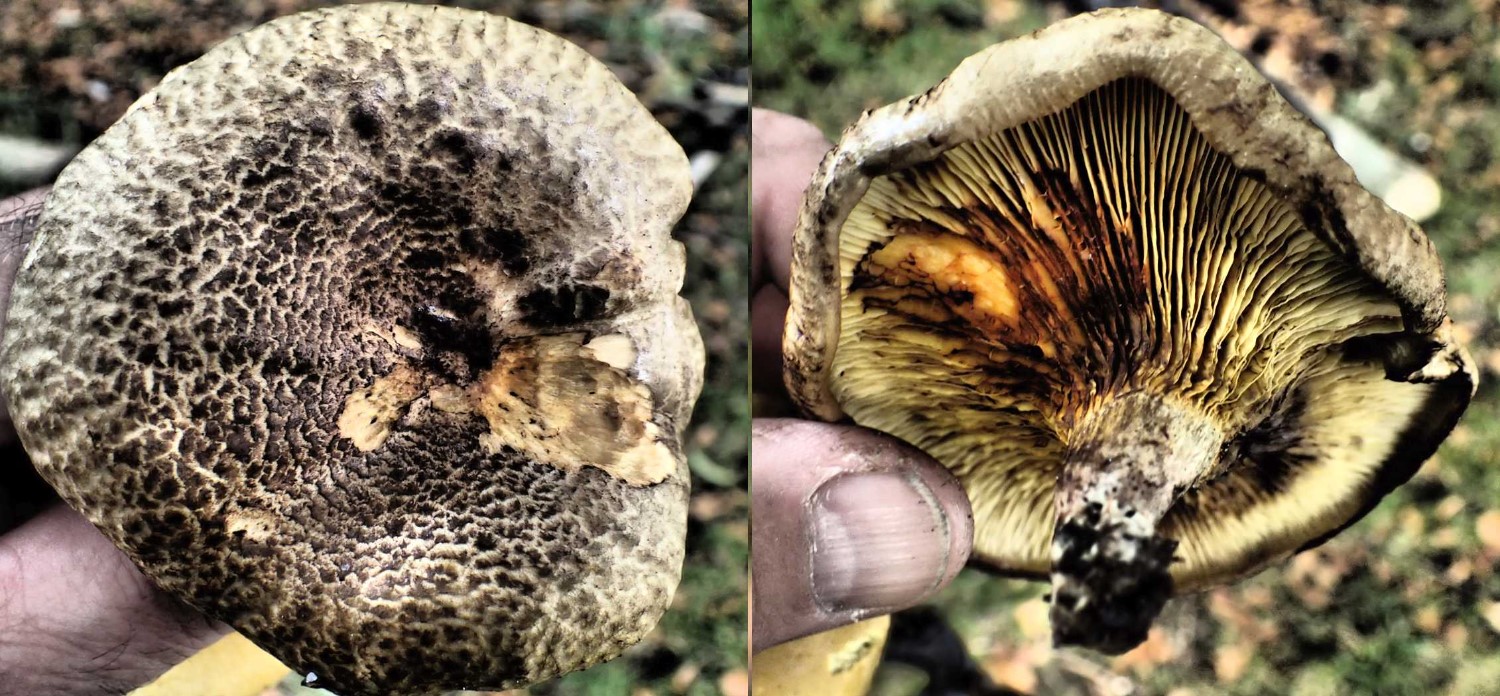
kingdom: Fungi
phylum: Basidiomycota
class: Agaricomycetes
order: Boletales
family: Paxillaceae
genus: Paxillus
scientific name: Paxillus rubicundulus
